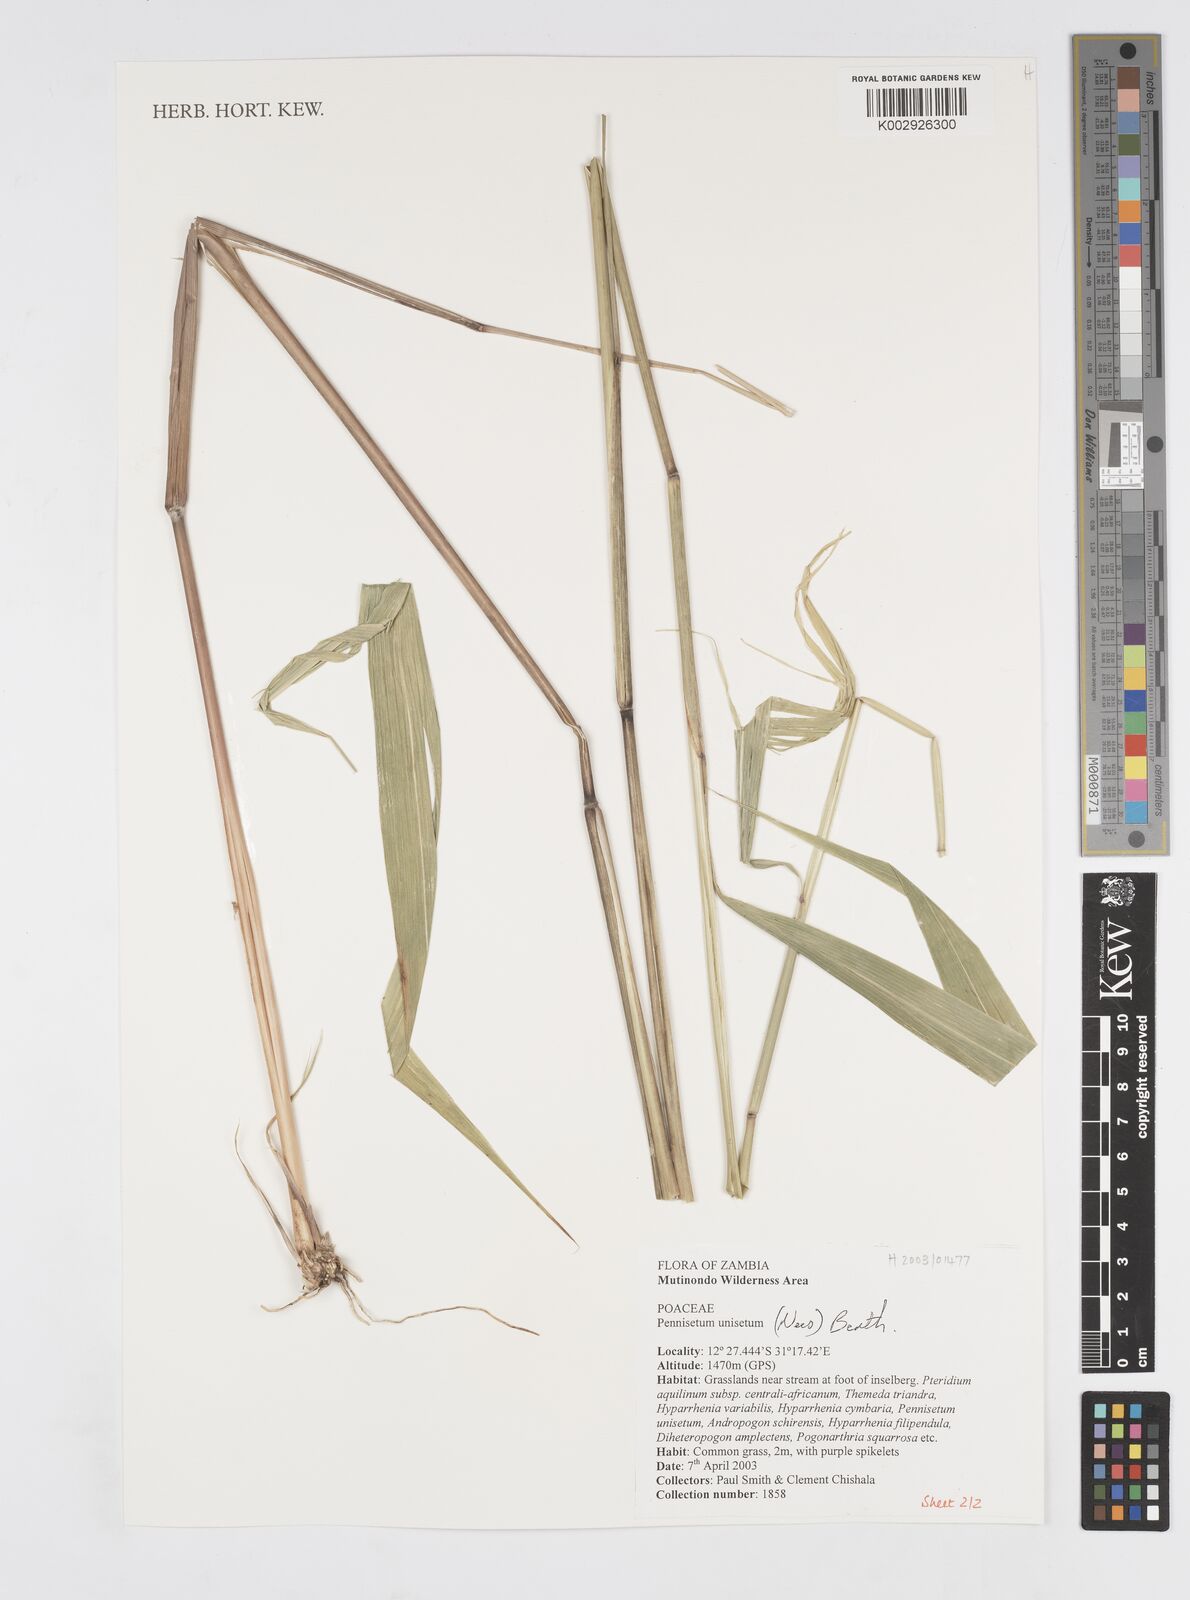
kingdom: Plantae
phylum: Tracheophyta
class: Liliopsida
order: Poales
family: Poaceae
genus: Cenchrus
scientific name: Cenchrus unisetus
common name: Natal grass
